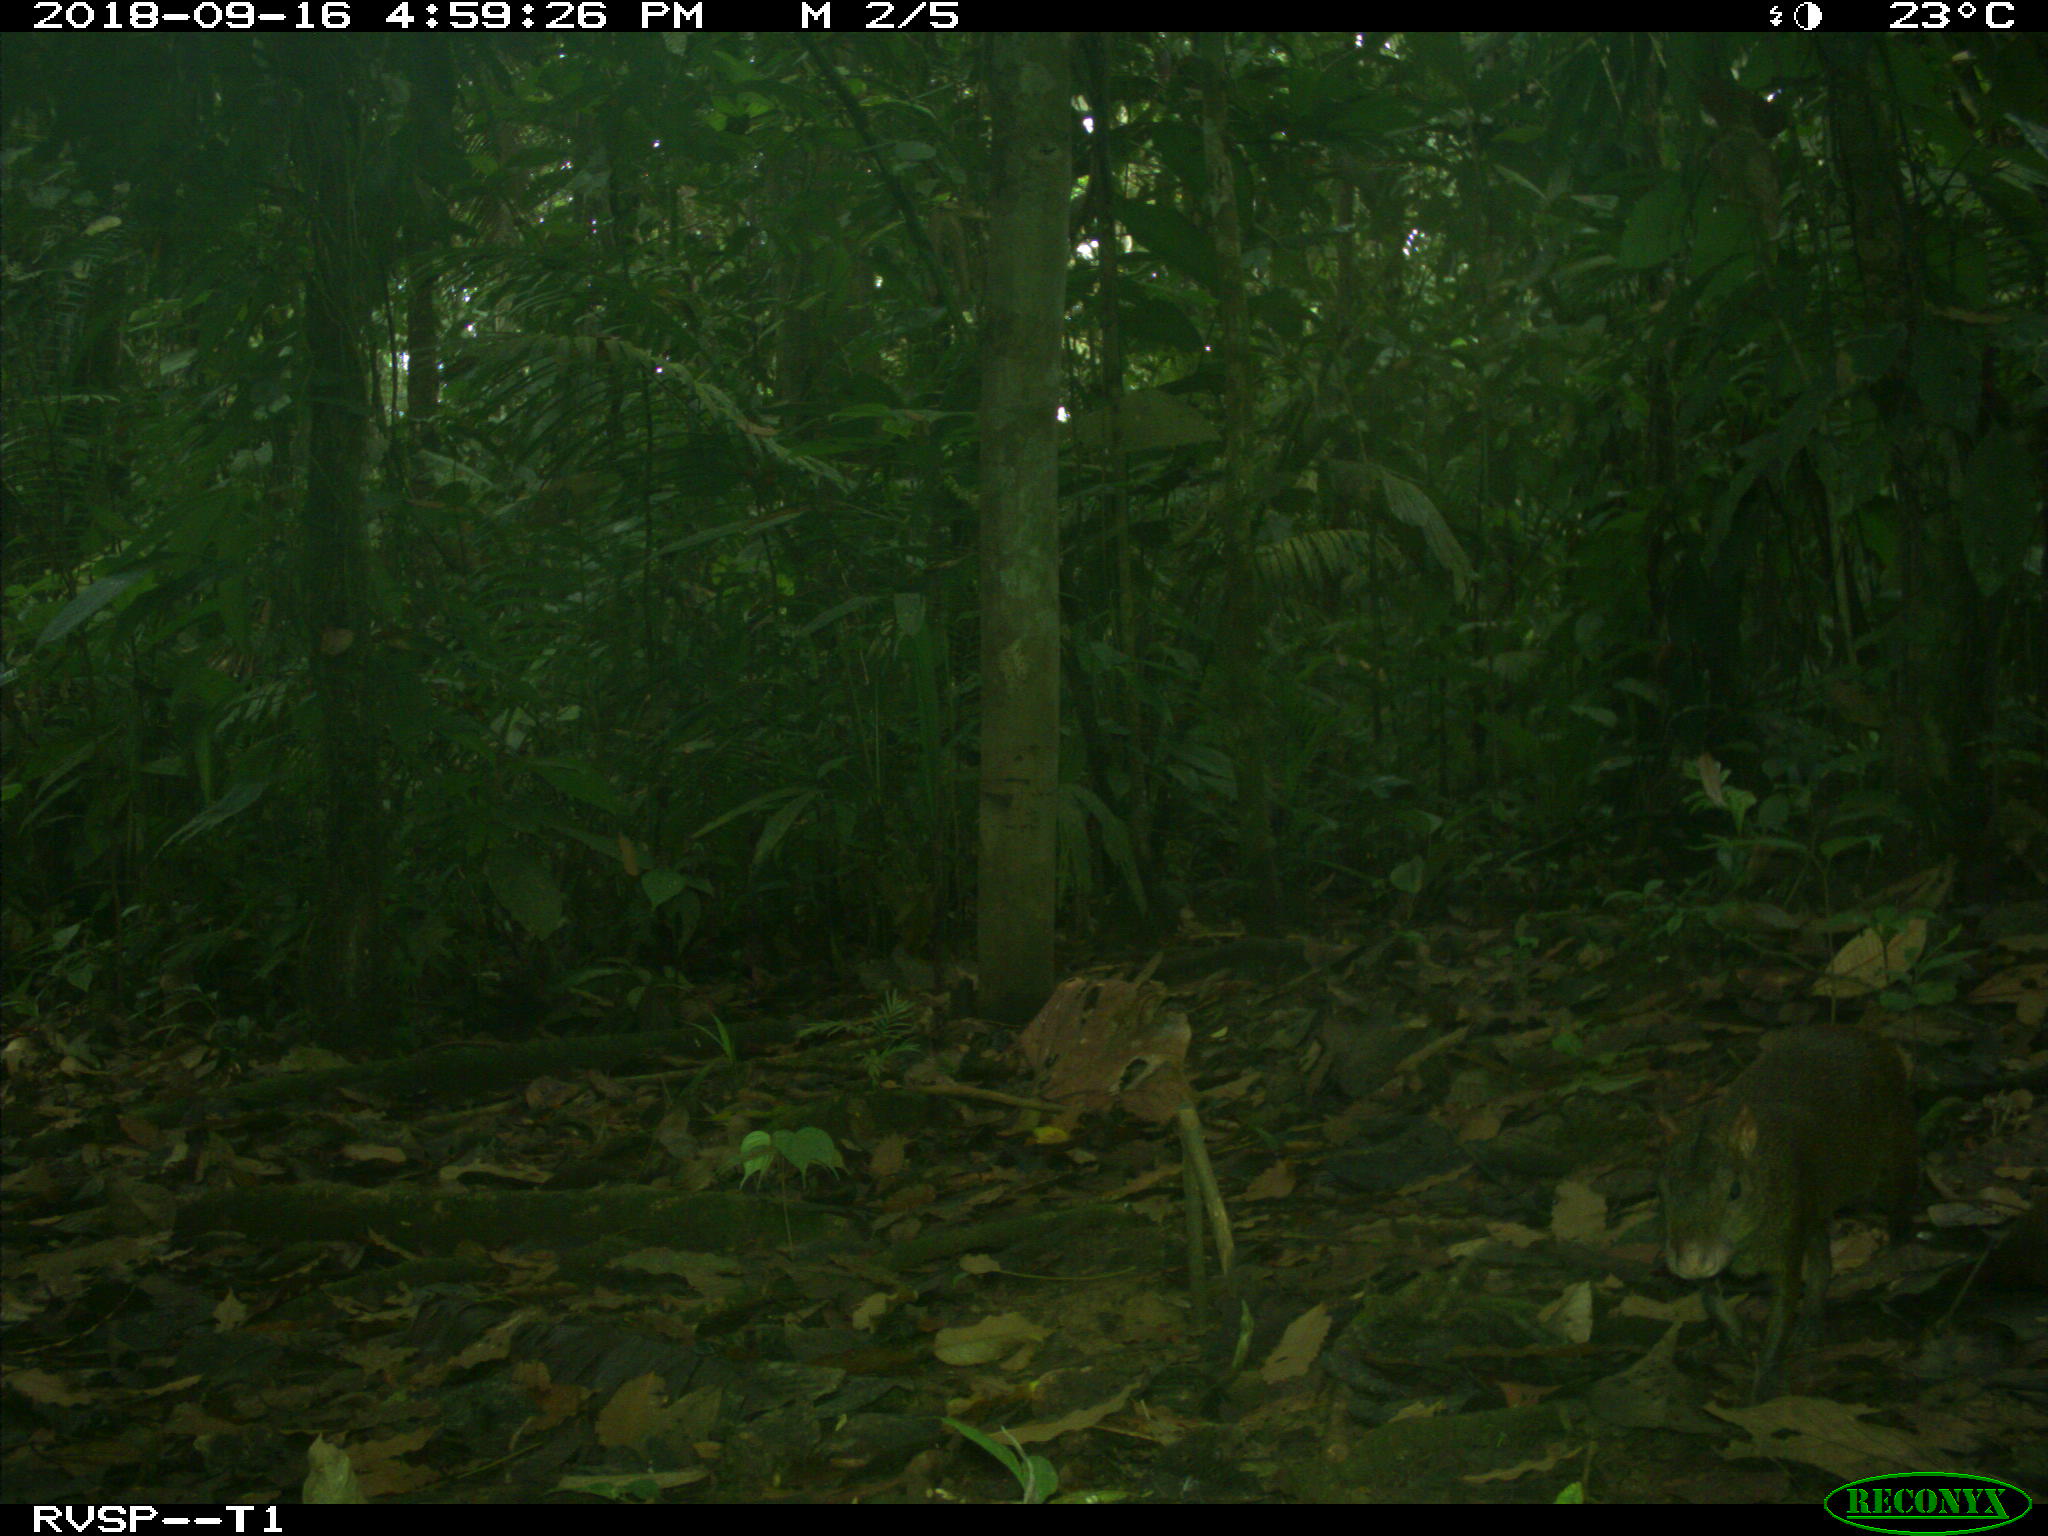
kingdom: Animalia
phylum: Chordata
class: Mammalia
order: Rodentia
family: Dasyproctidae
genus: Dasyprocta
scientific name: Dasyprocta punctata
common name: Central american agouti
